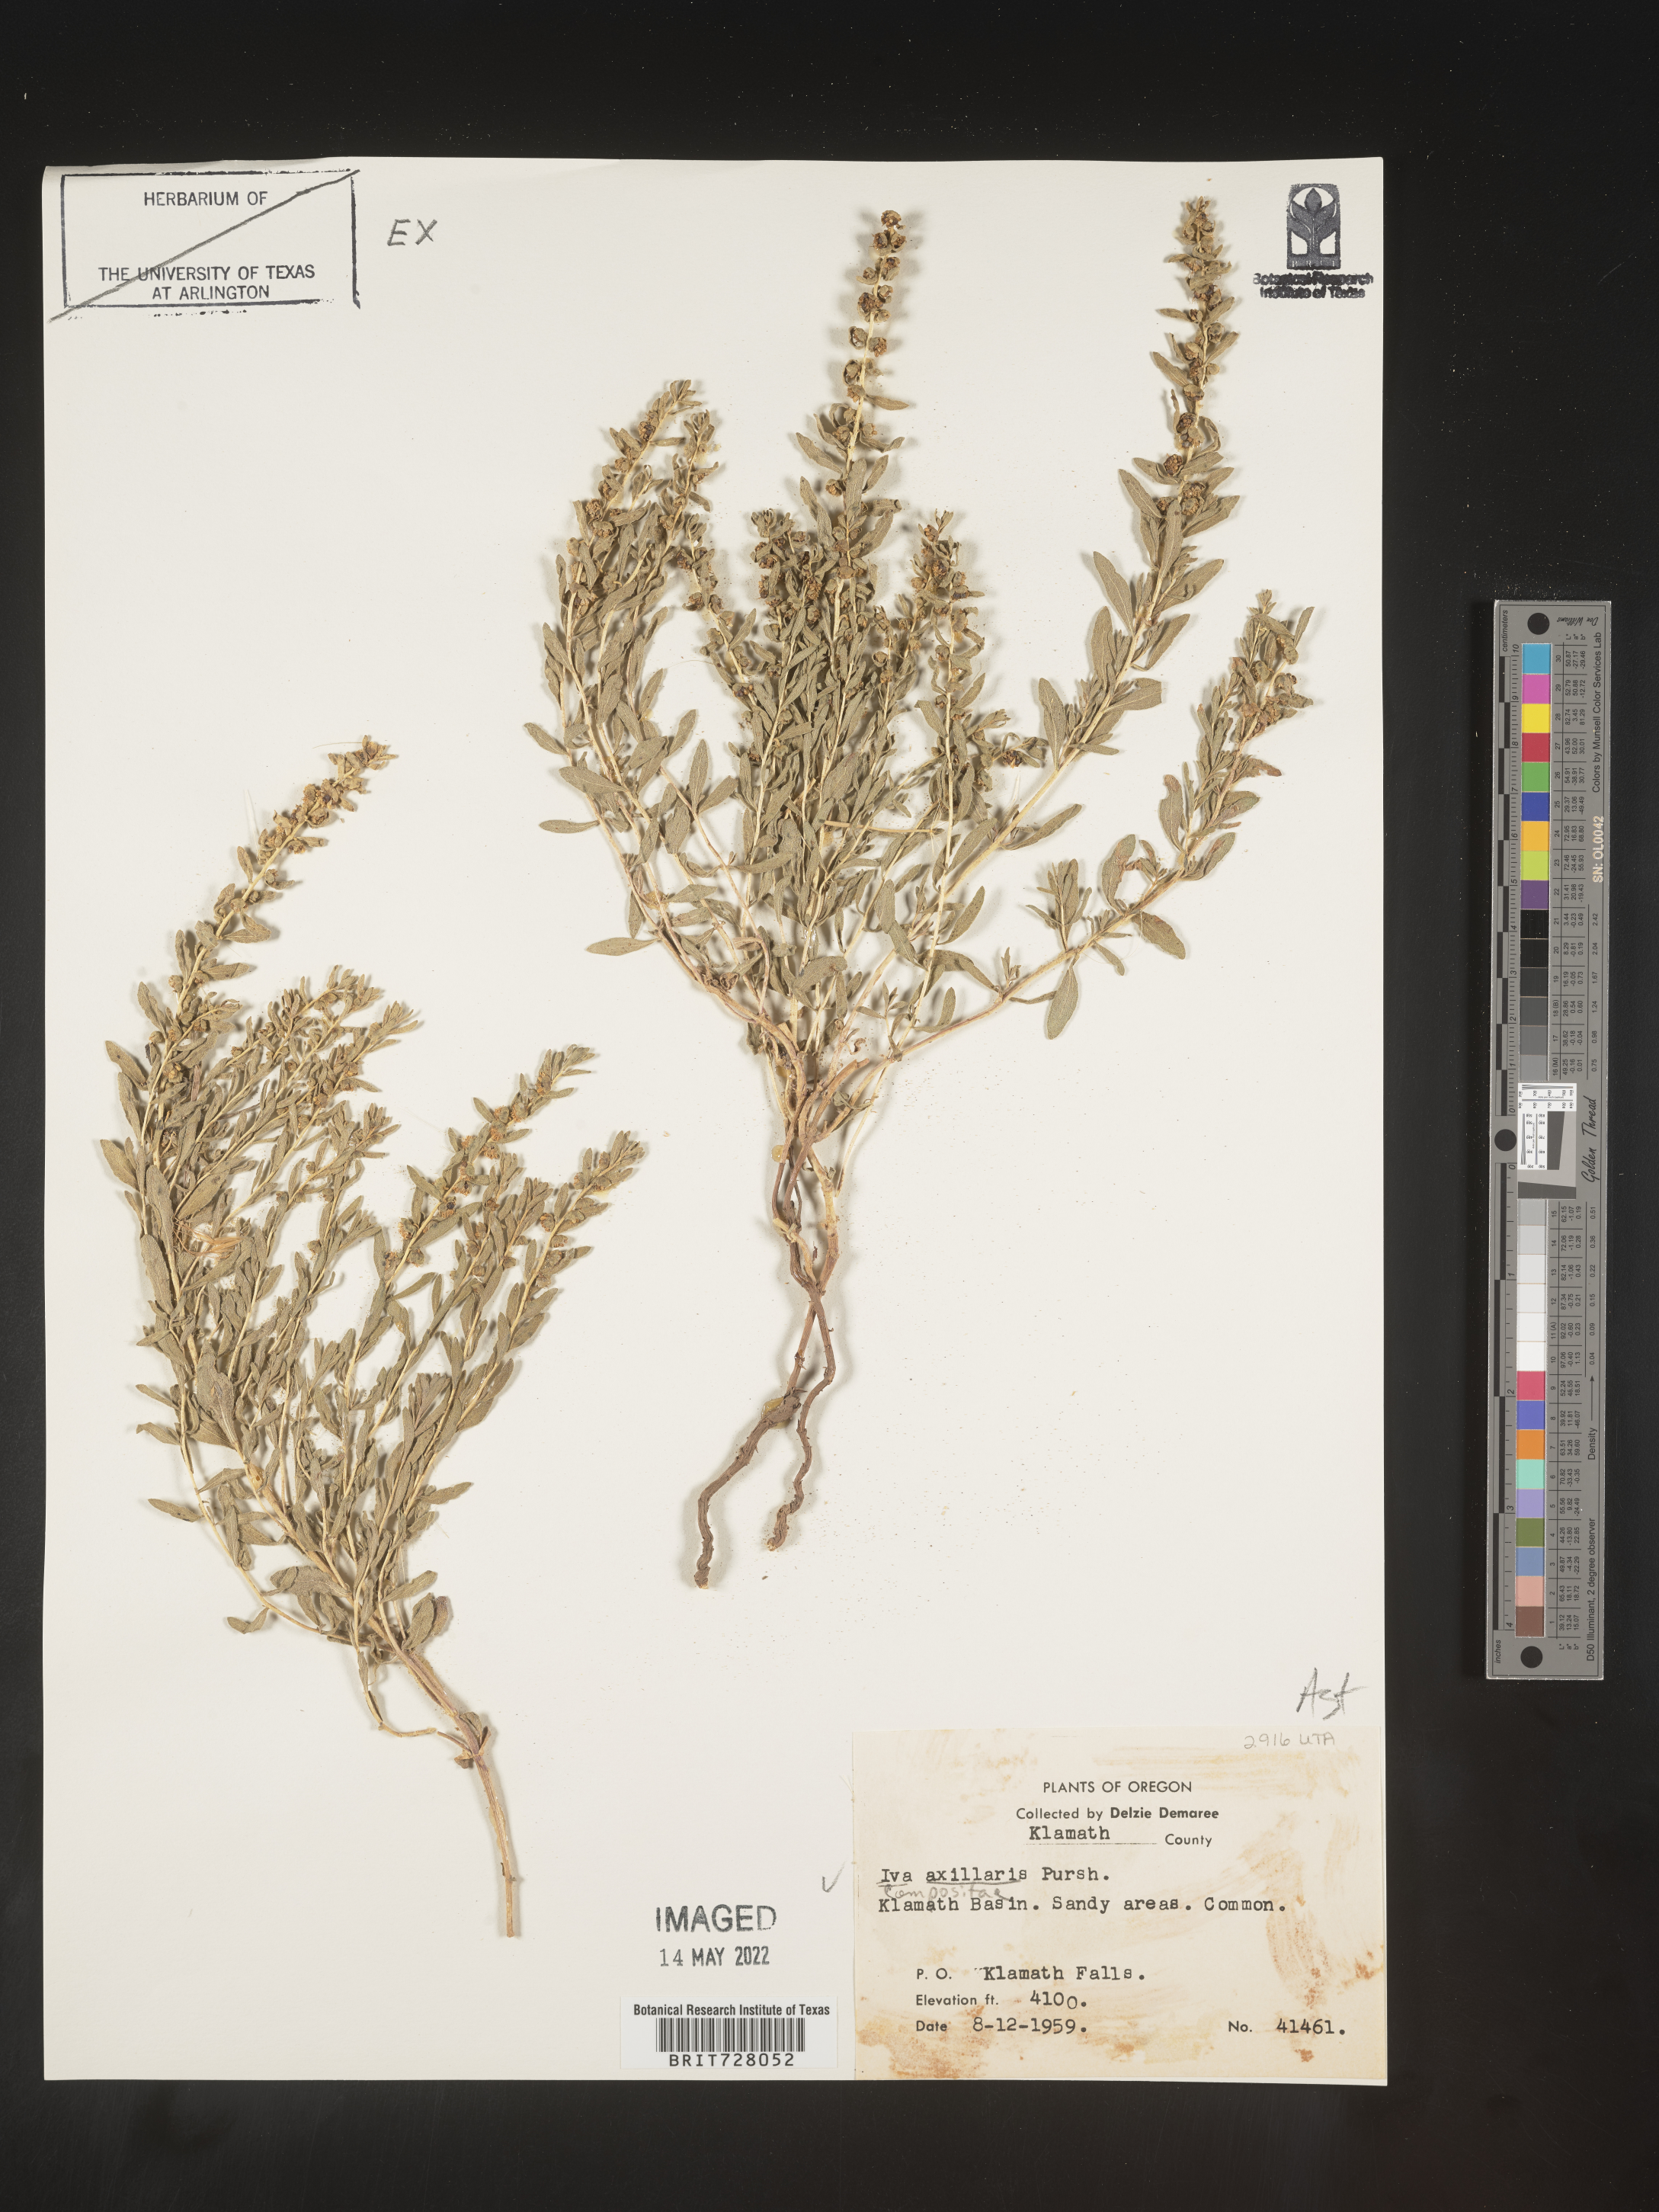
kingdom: Plantae
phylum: Tracheophyta
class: Magnoliopsida
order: Asterales
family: Asteraceae
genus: Iva
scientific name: Iva axillaris
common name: Poverty sumpweed
